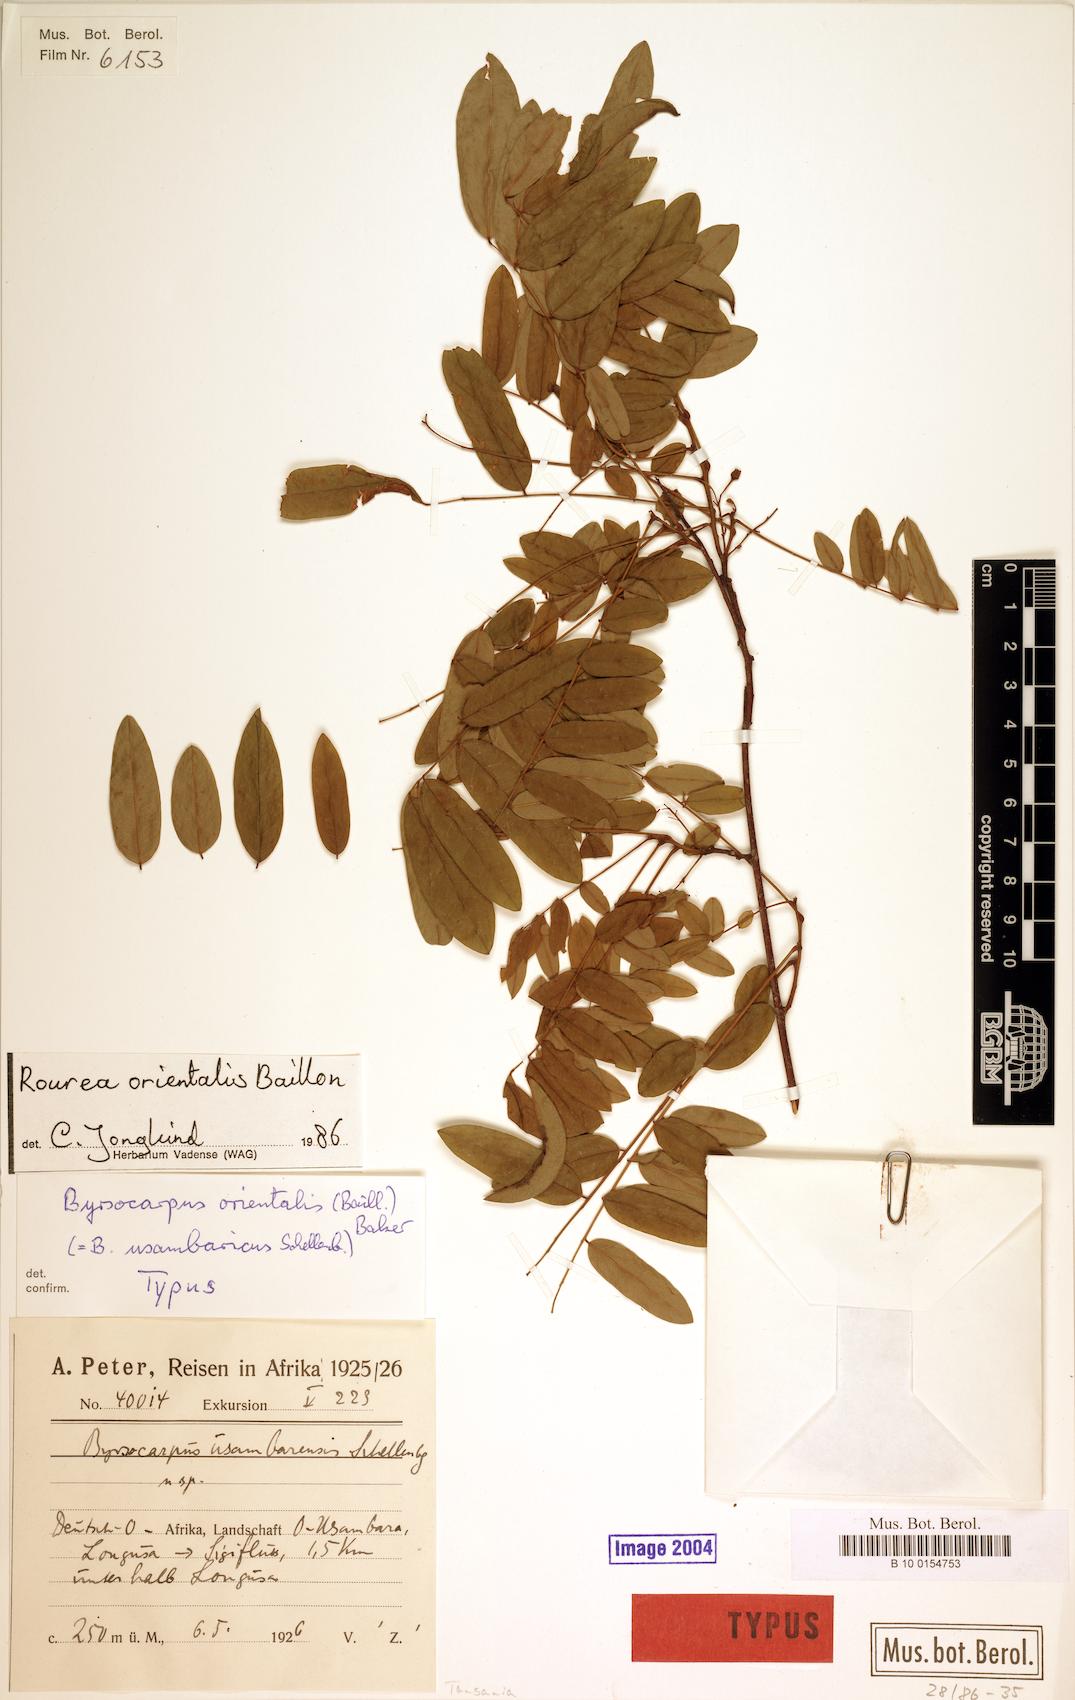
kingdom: Plantae
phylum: Tracheophyta
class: Magnoliopsida
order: Oxalidales
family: Connaraceae
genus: Rourea
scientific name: Rourea orientalis
